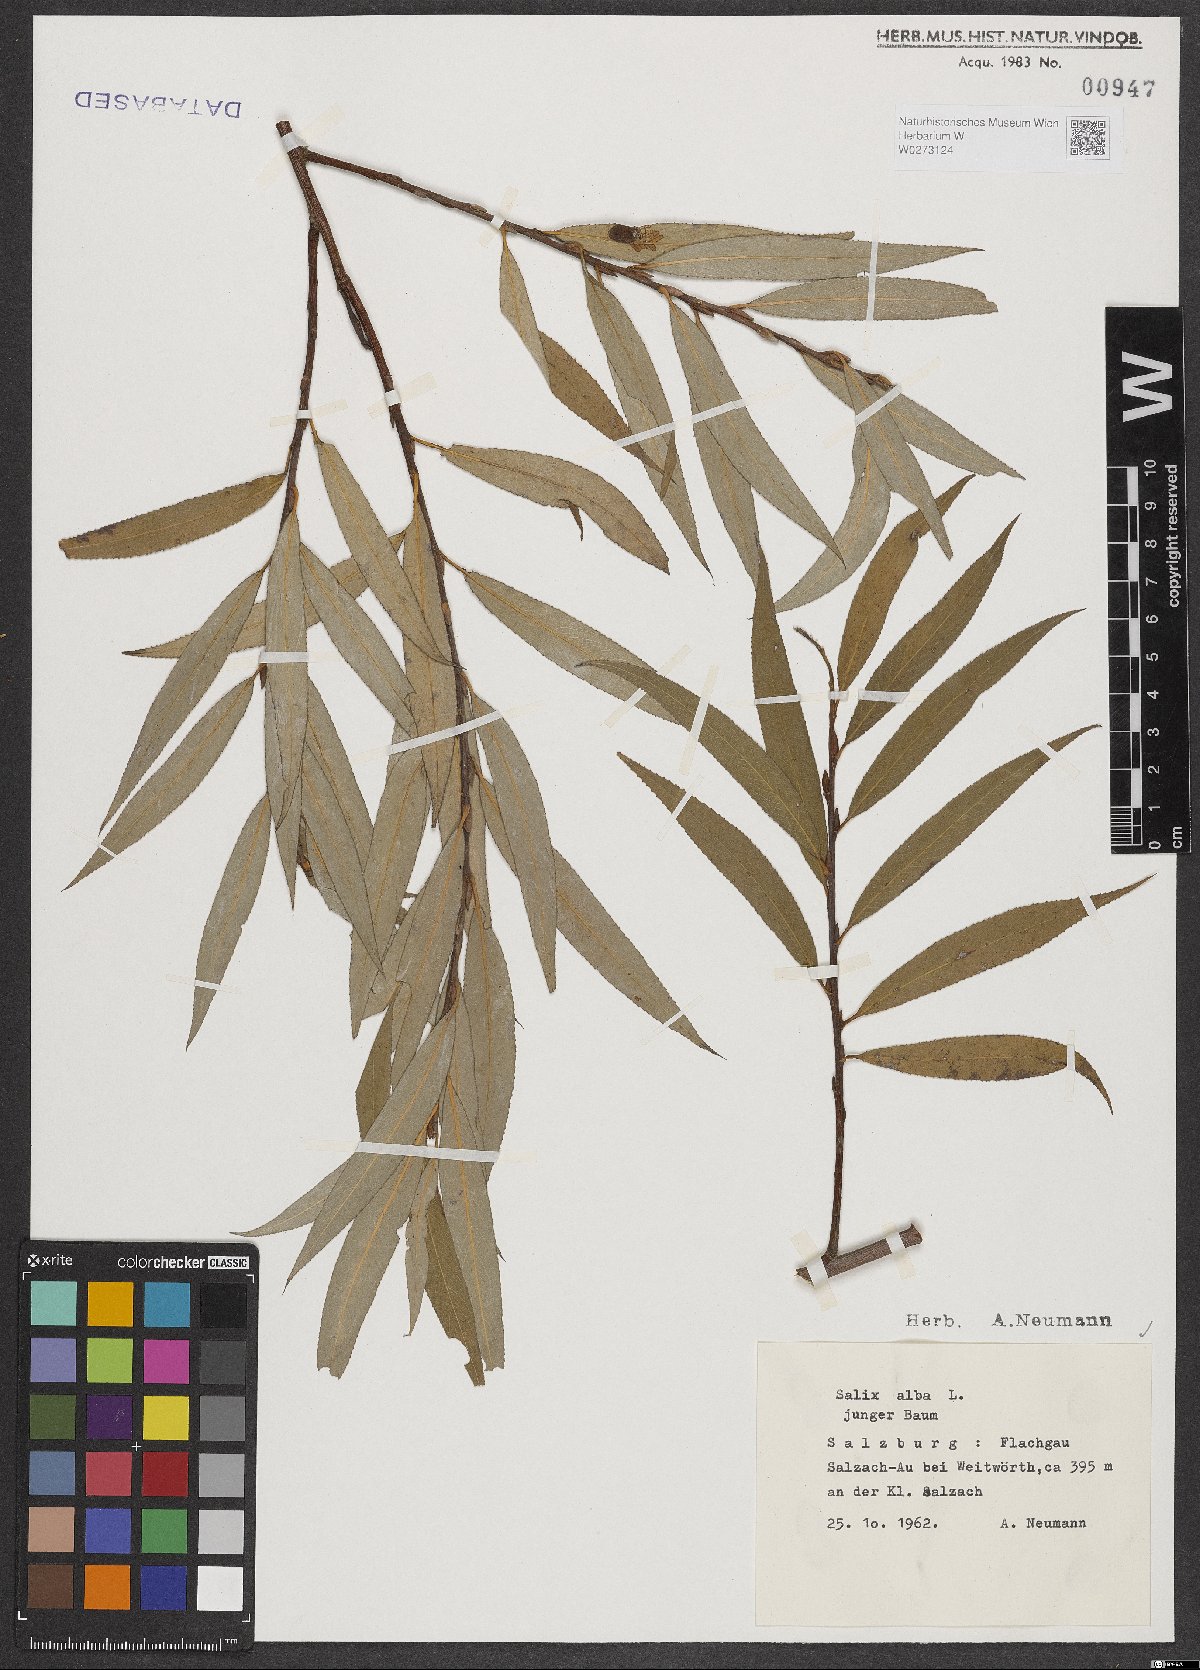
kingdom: Plantae
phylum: Tracheophyta
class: Magnoliopsida
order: Malpighiales
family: Salicaceae
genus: Salix
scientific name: Salix alba
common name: White willow
